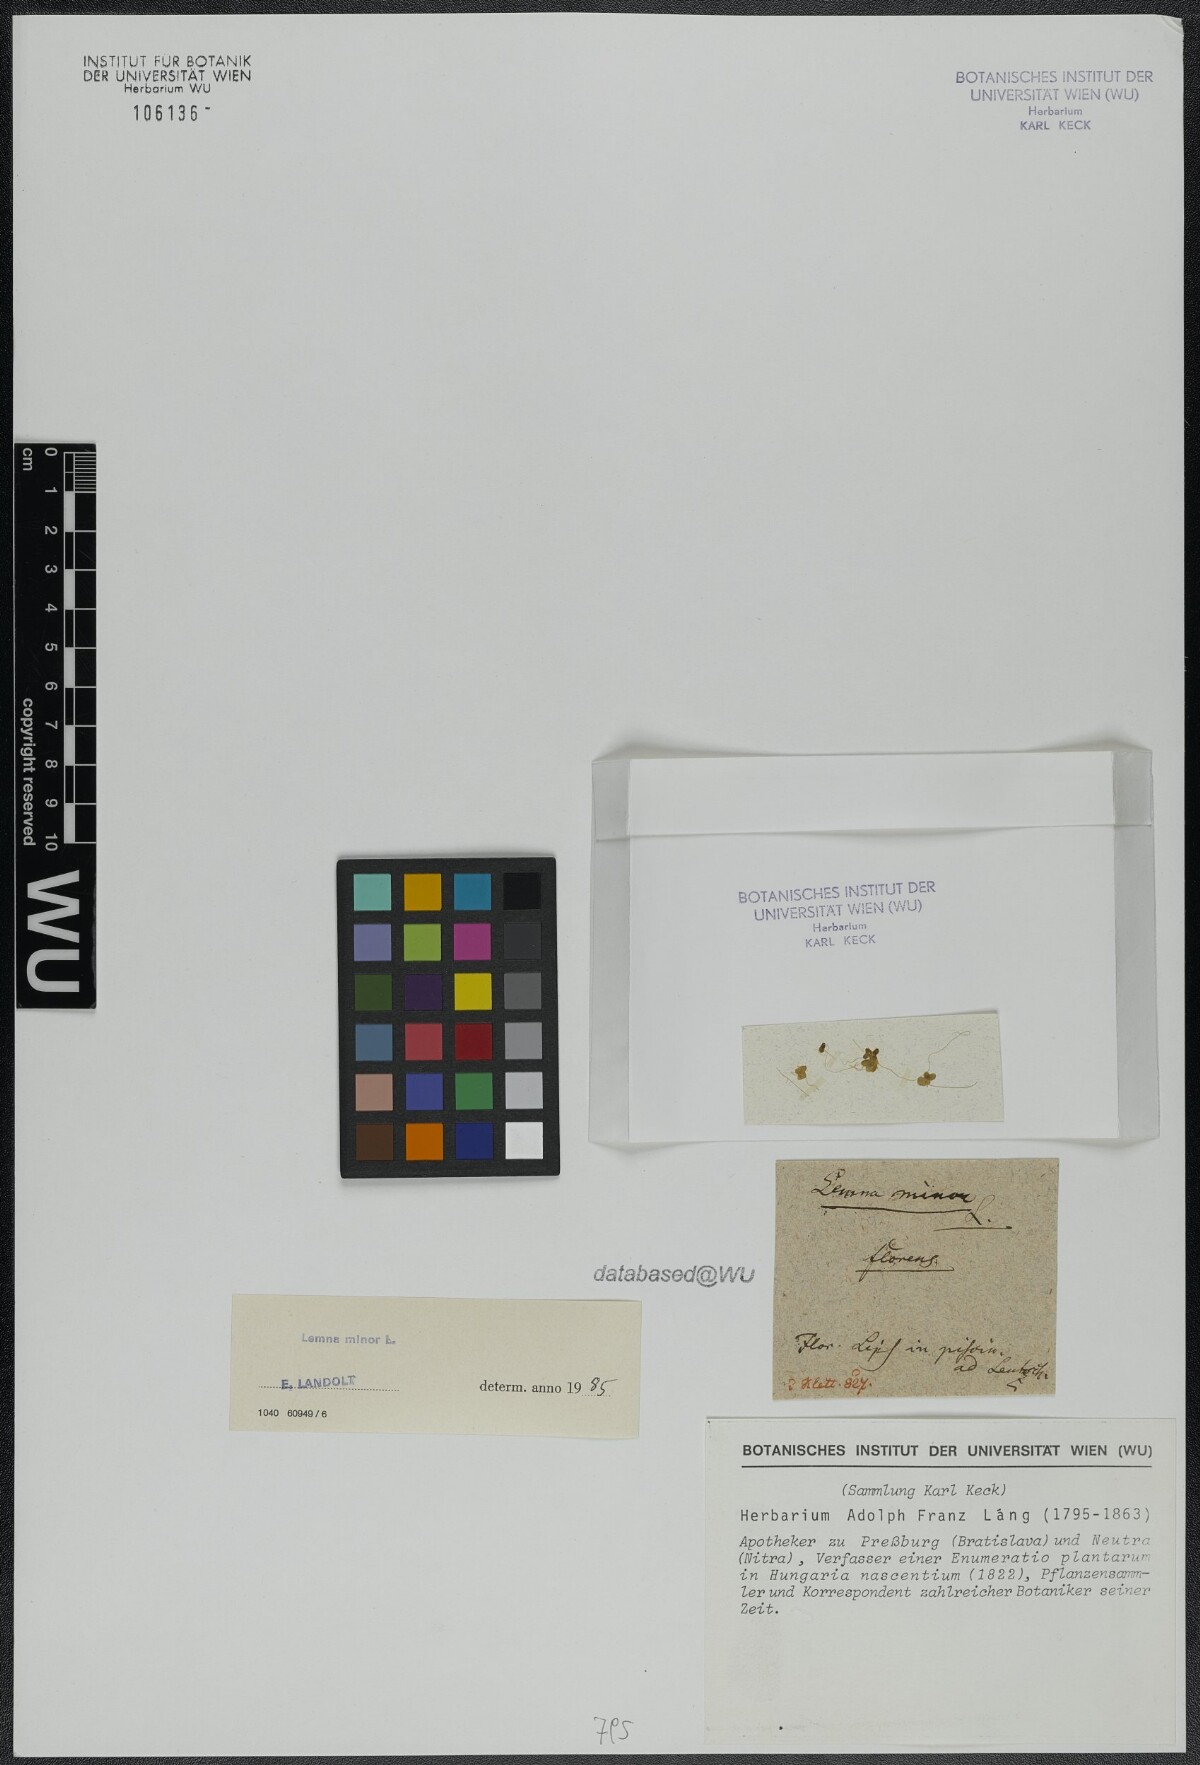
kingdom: Plantae
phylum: Tracheophyta
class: Liliopsida
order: Alismatales
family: Araceae
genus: Lemna
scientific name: Lemna minor
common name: Common duckweed
